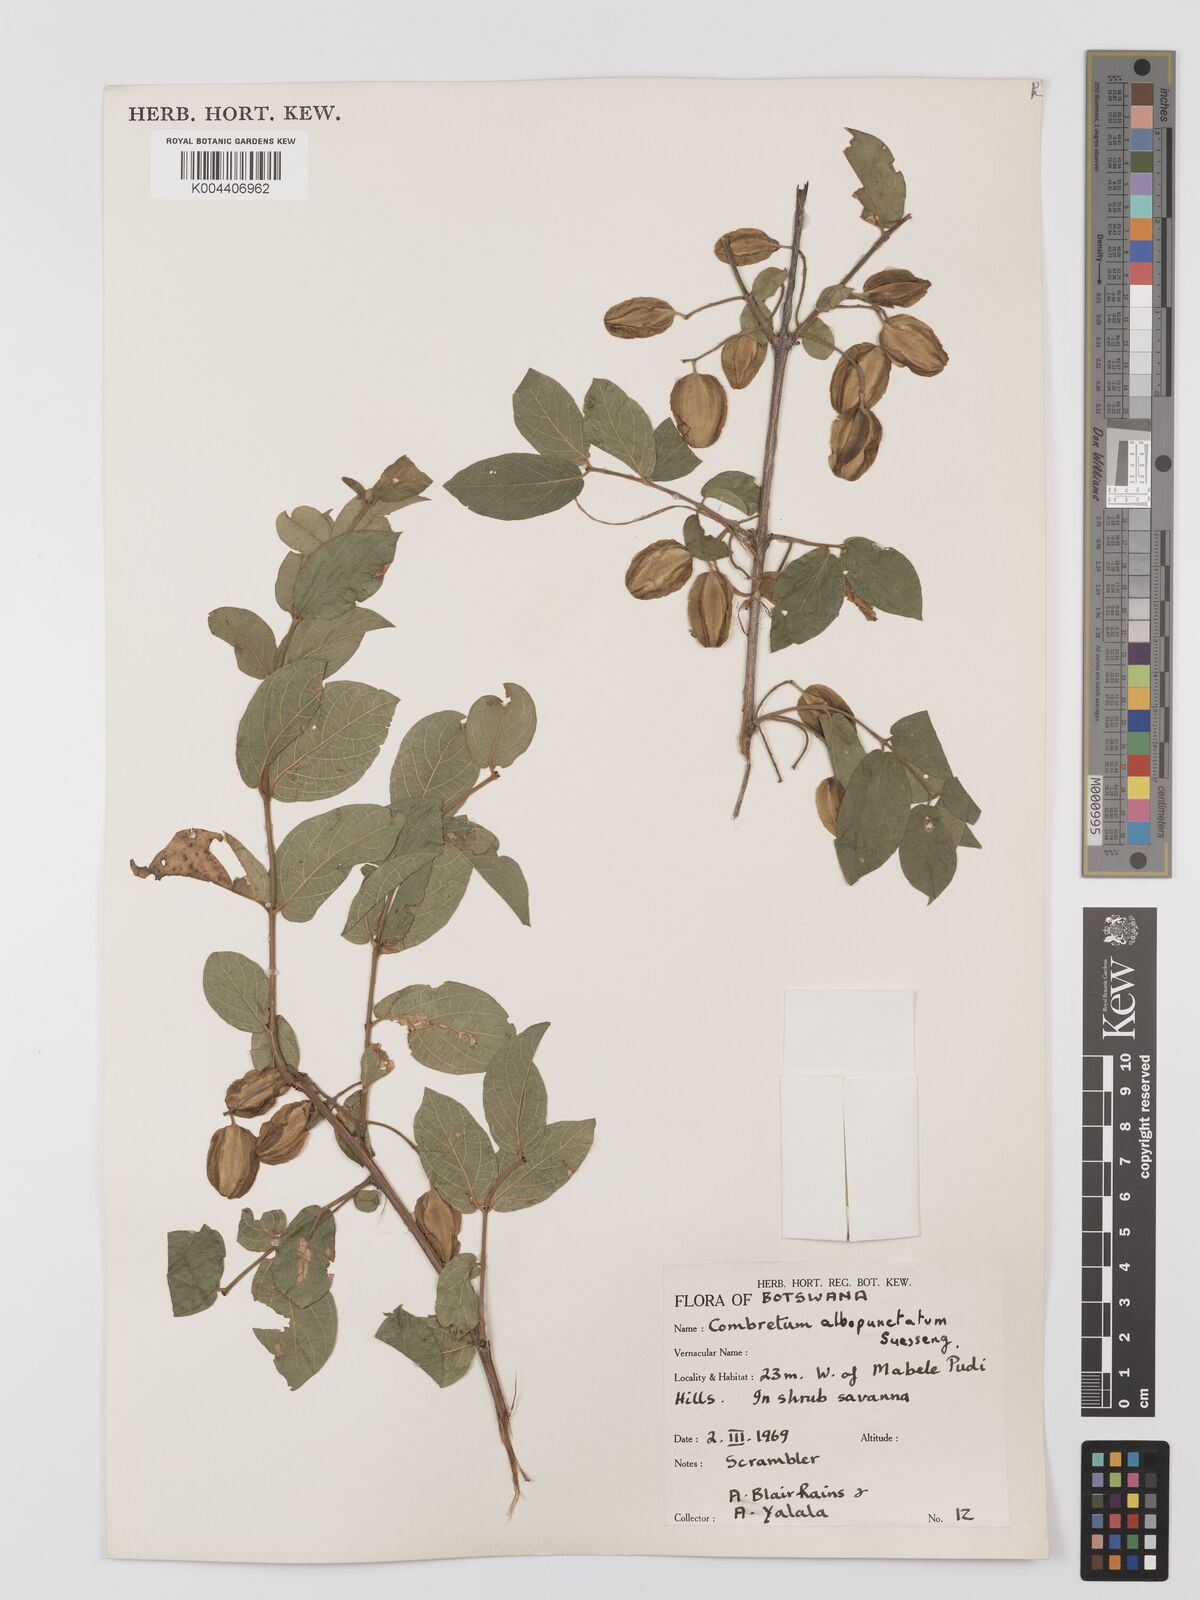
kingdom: Plantae
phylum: Tracheophyta
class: Magnoliopsida
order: Myrtales
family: Combretaceae
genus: Combretum
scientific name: Combretum albopunctatum
